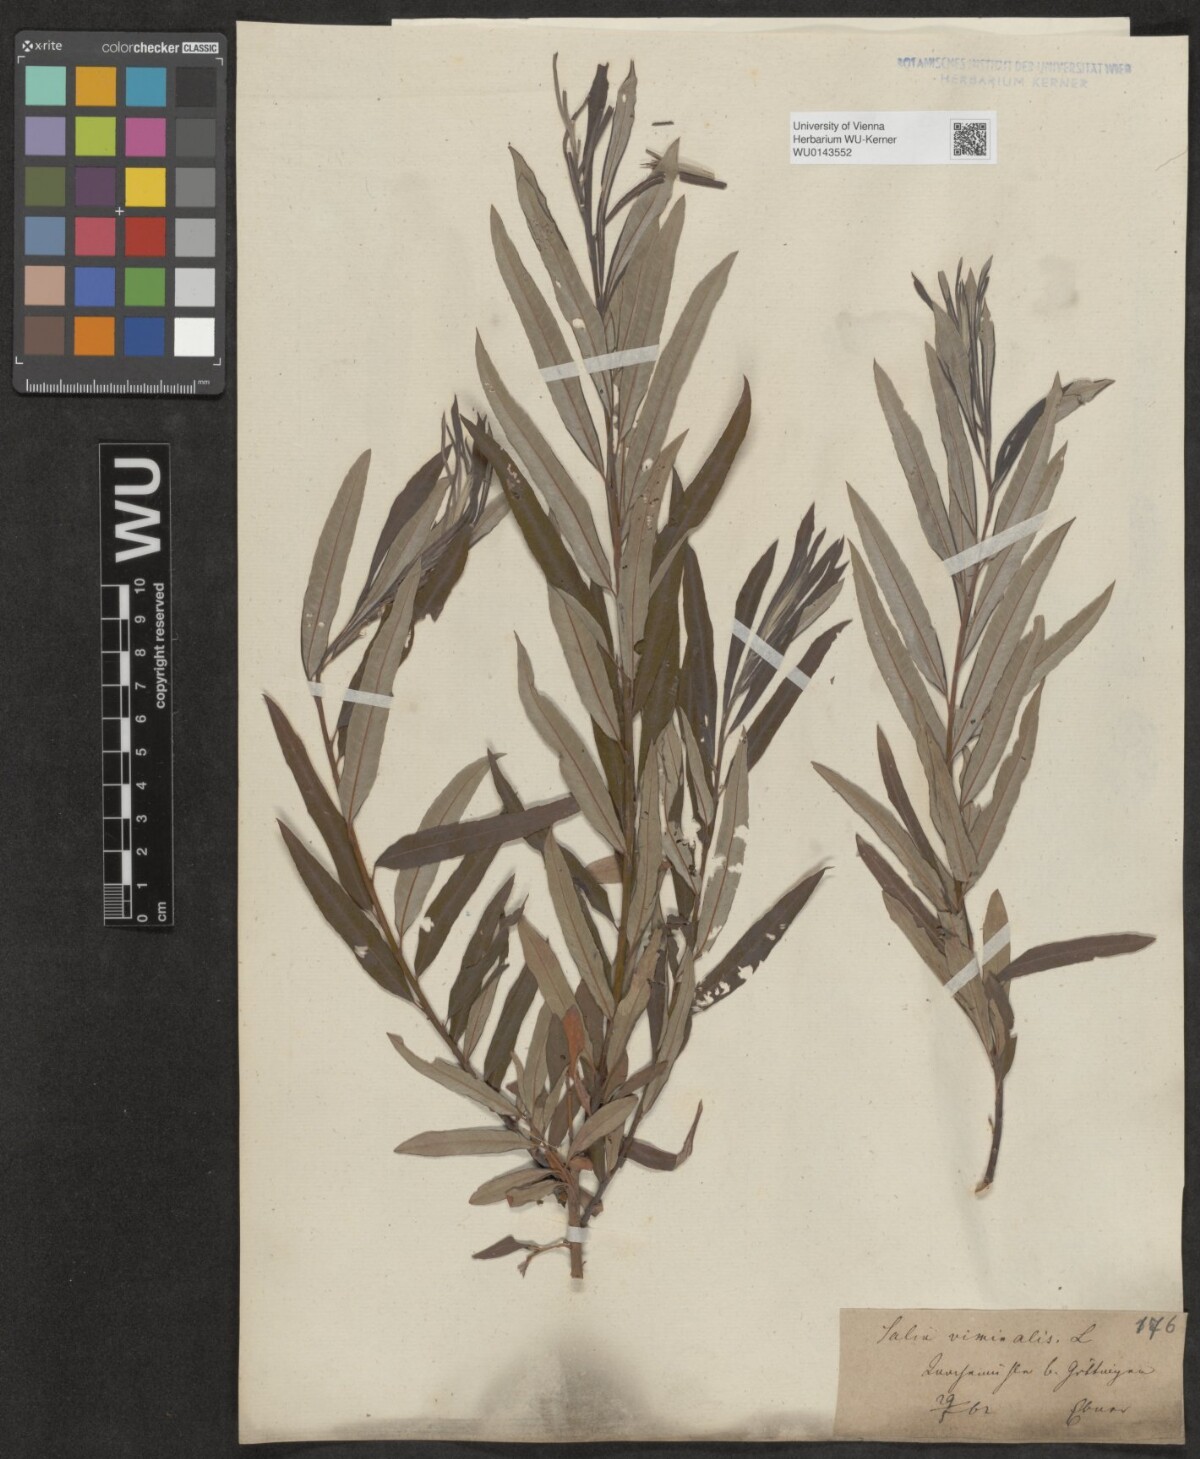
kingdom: Plantae
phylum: Tracheophyta
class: Magnoliopsida
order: Malpighiales
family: Salicaceae
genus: Salix
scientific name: Salix viminalis
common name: Osier
